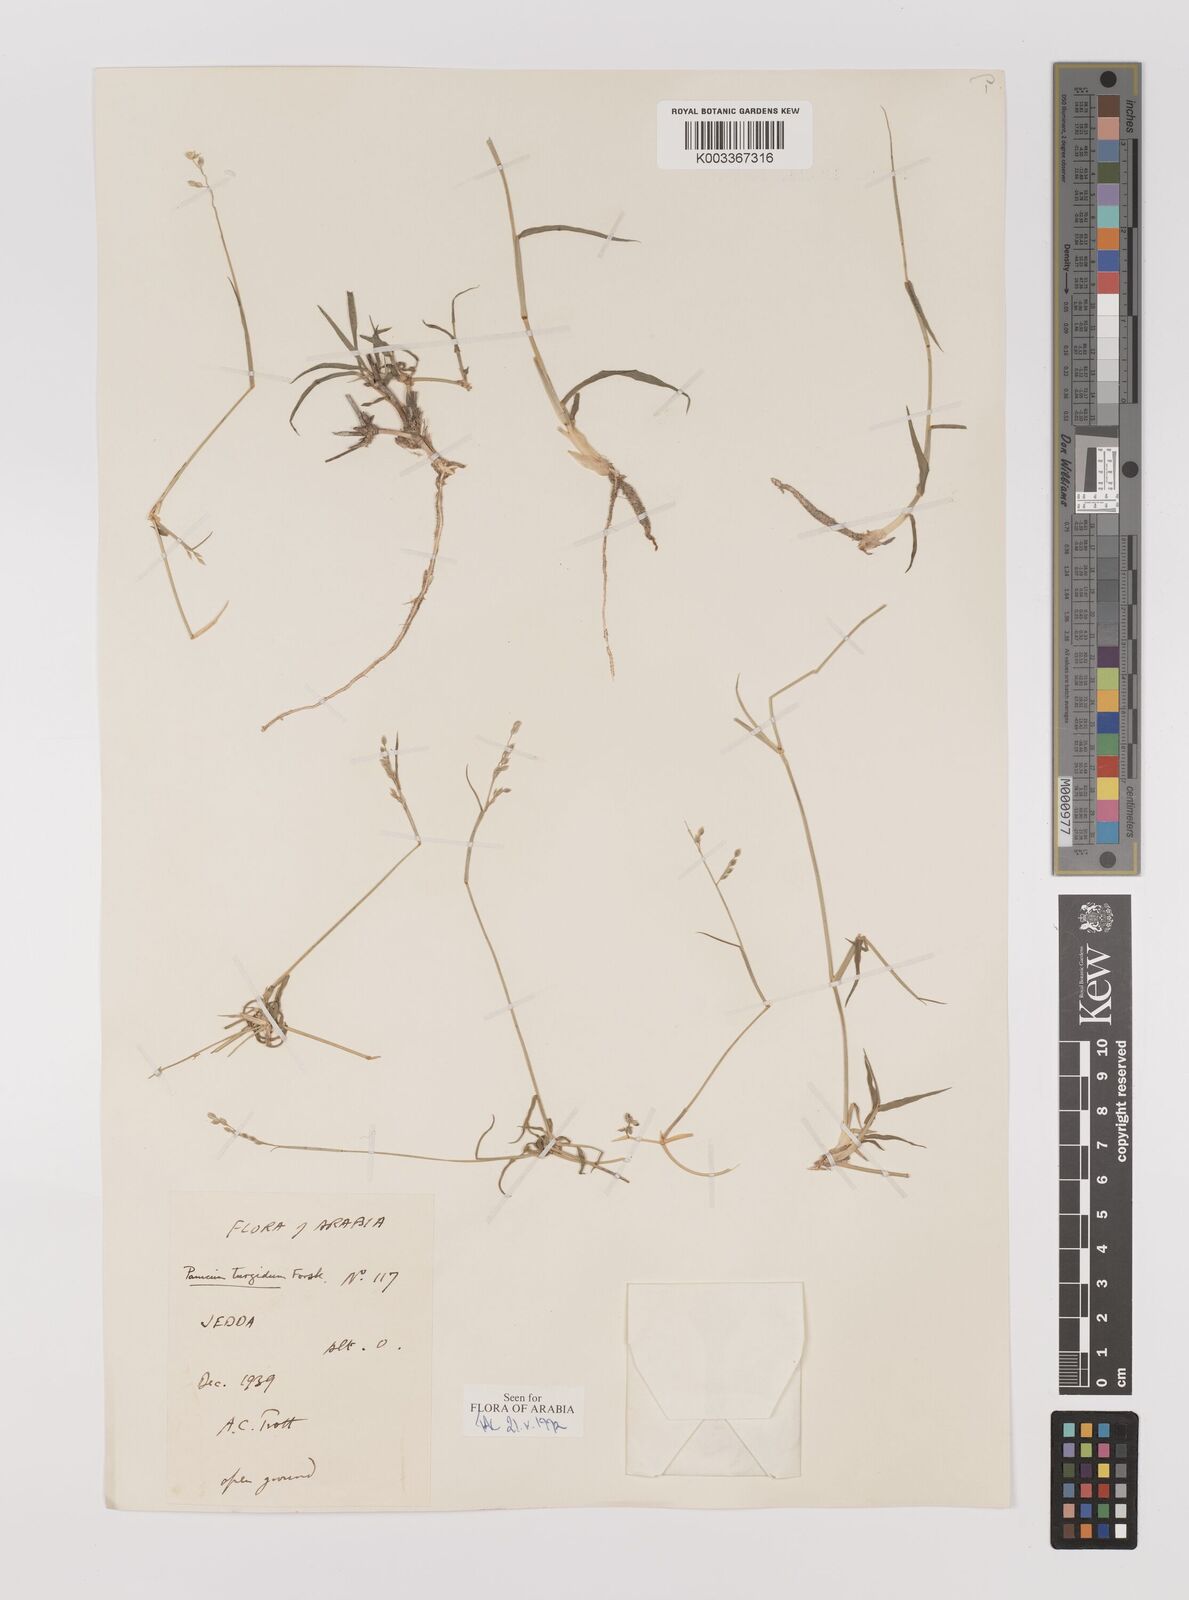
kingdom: Plantae
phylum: Tracheophyta
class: Liliopsida
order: Poales
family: Poaceae
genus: Panicum
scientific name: Panicum turgidum
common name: Desert grass
